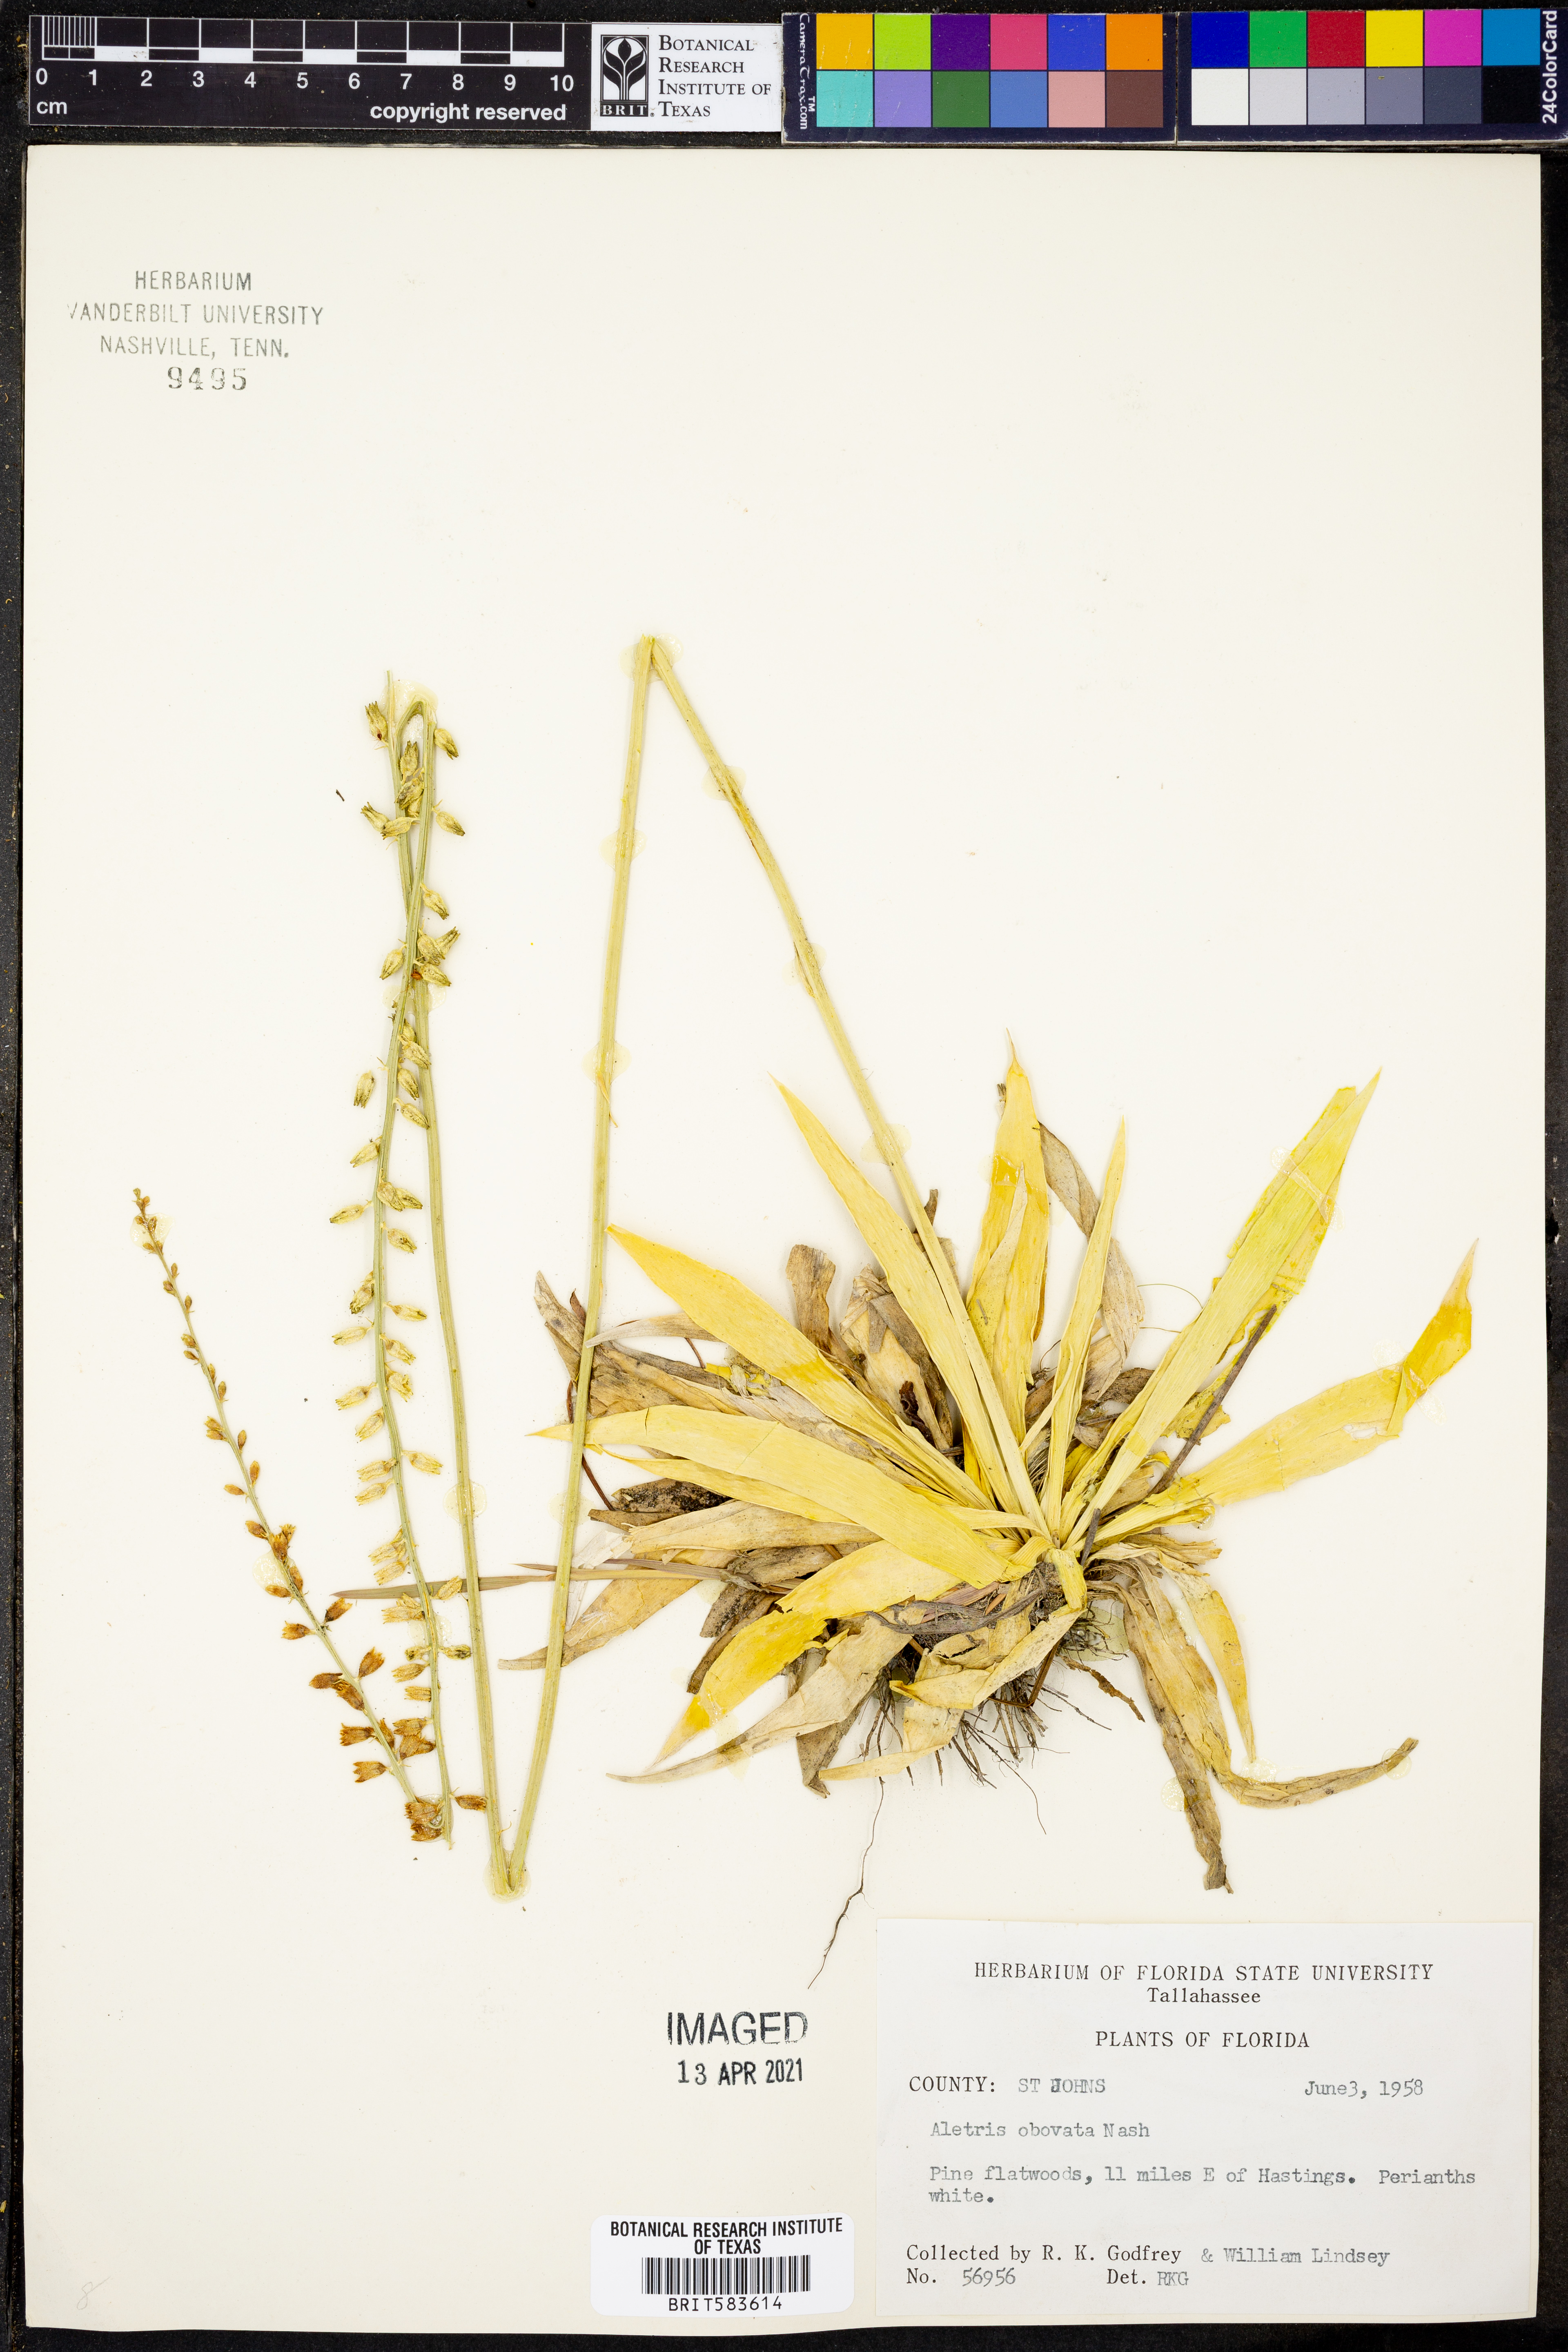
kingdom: Plantae
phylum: Tracheophyta
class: Liliopsida
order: Dioscoreales
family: Nartheciaceae
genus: Aletris
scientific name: Aletris obovata
